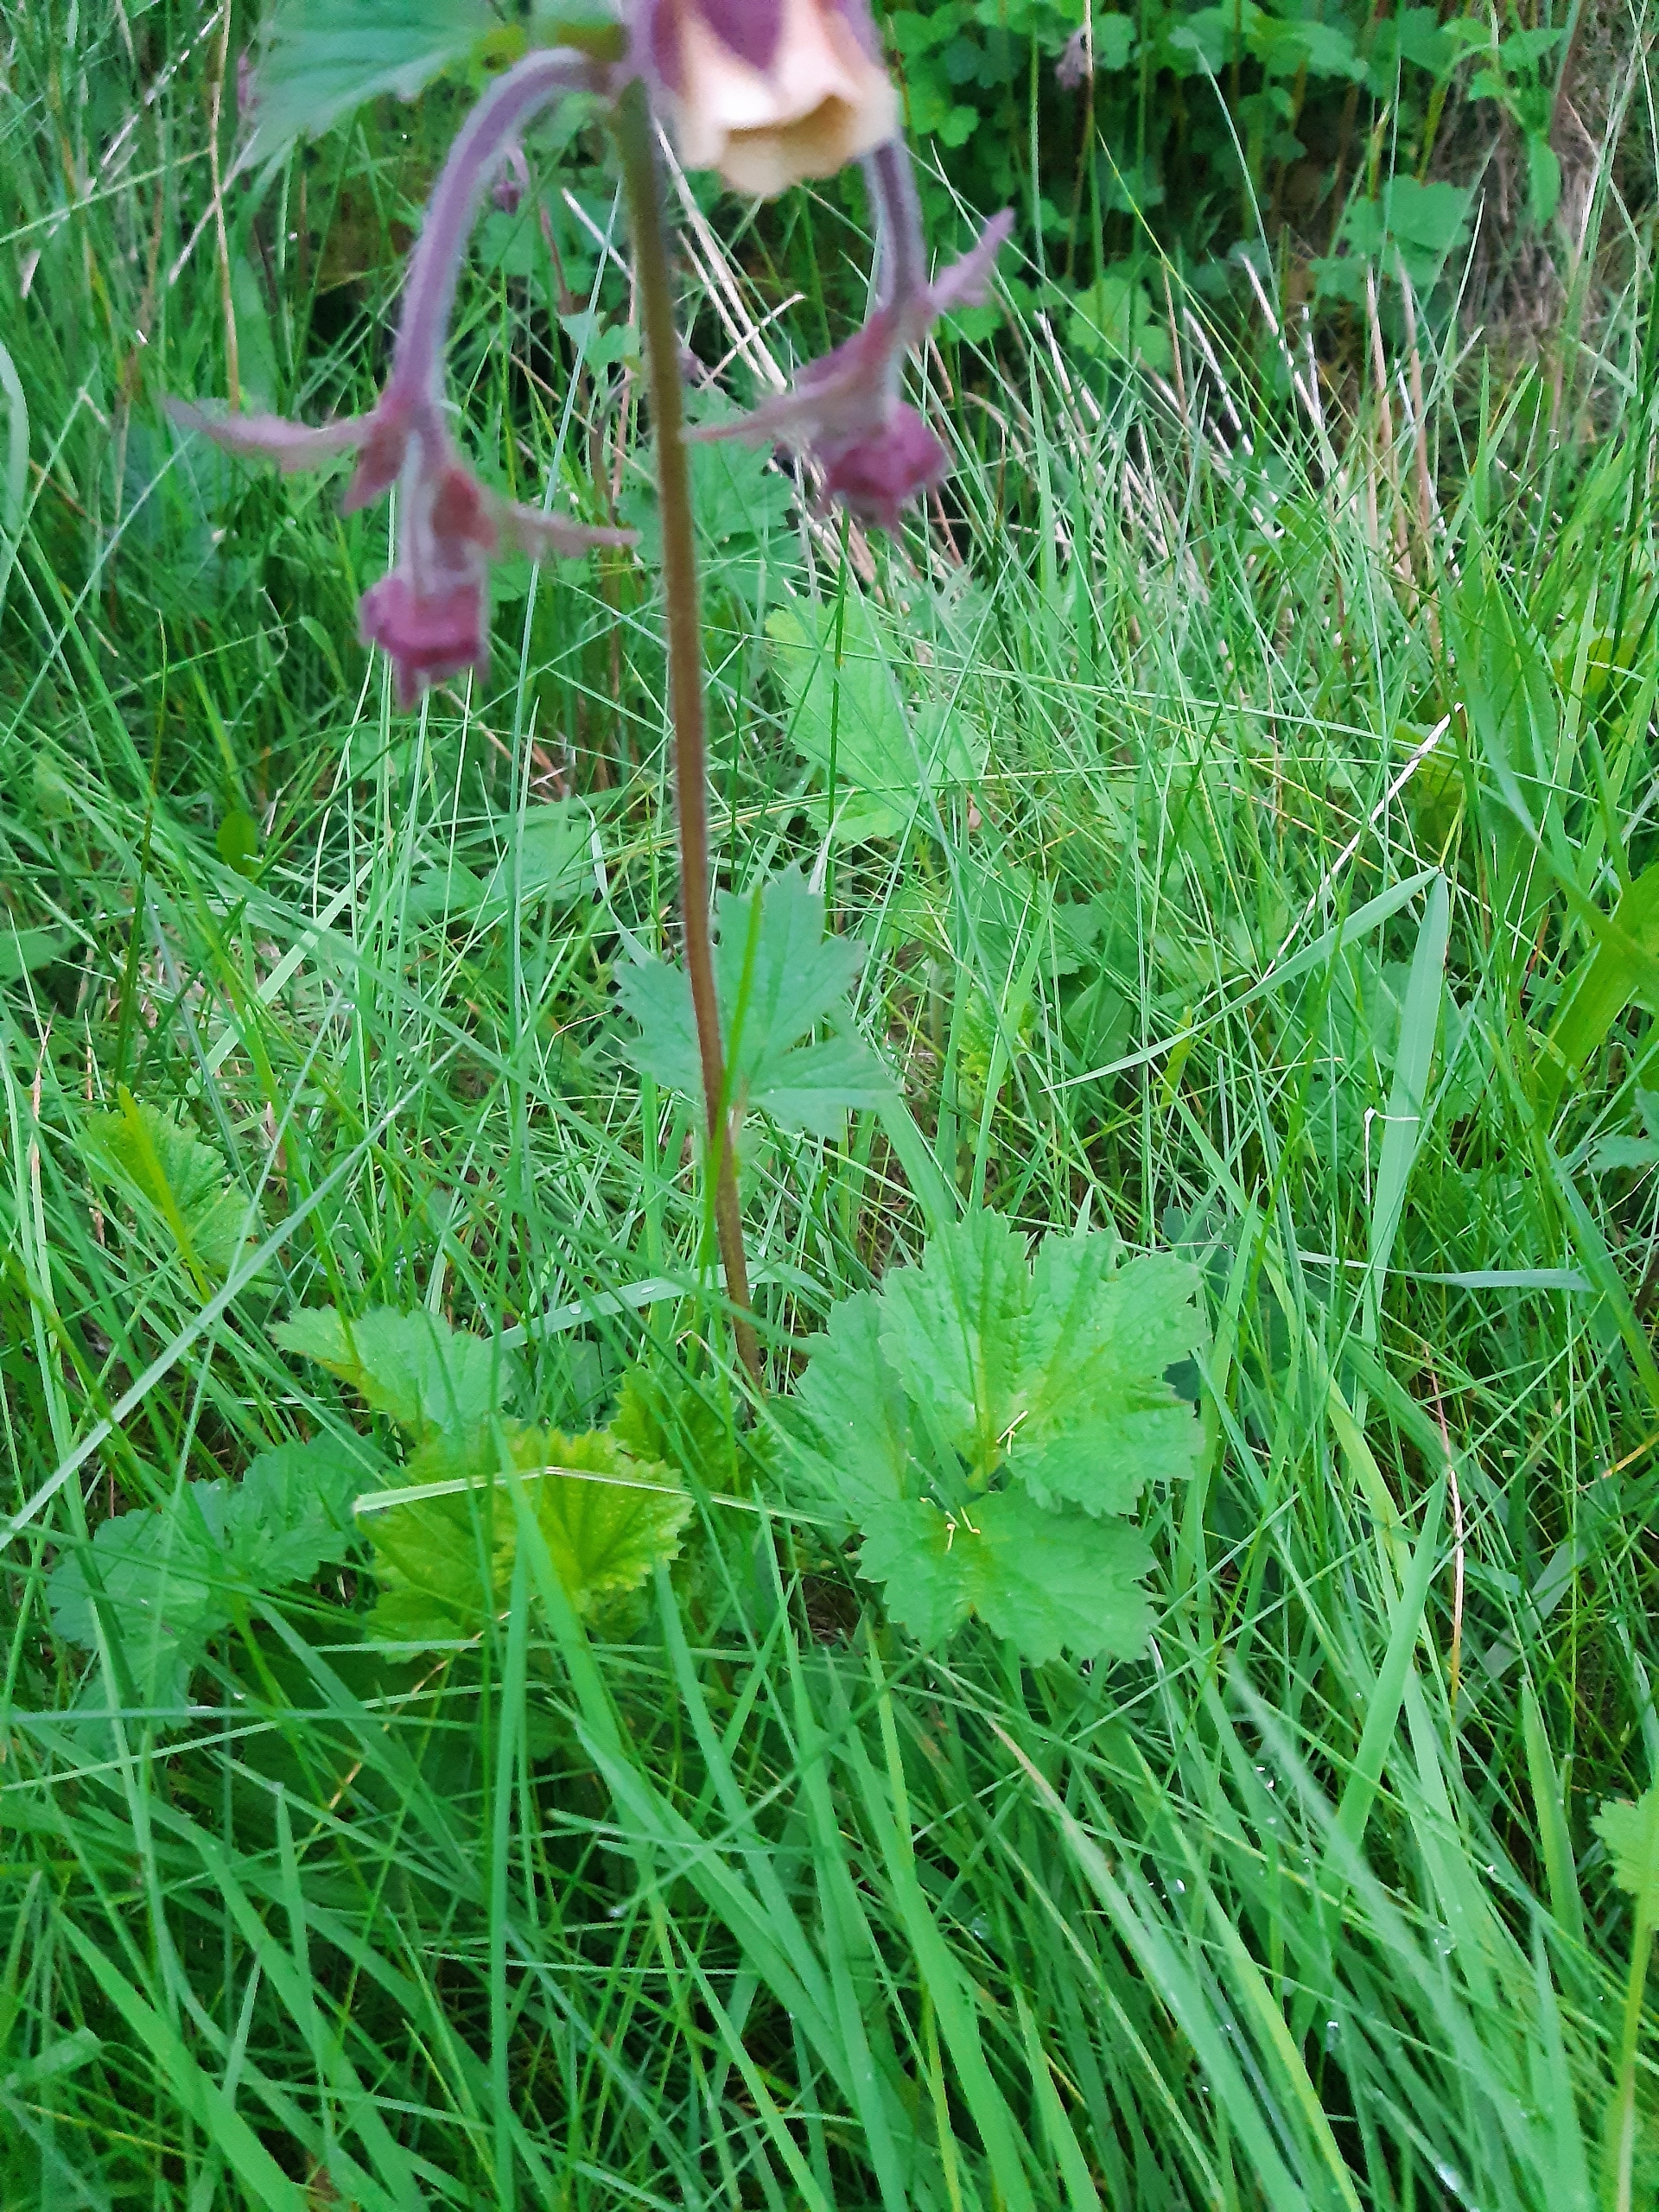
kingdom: Plantae
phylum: Tracheophyta
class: Magnoliopsida
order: Rosales
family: Rosaceae
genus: Geum
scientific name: Geum rivale
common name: Eng-nellikerod
